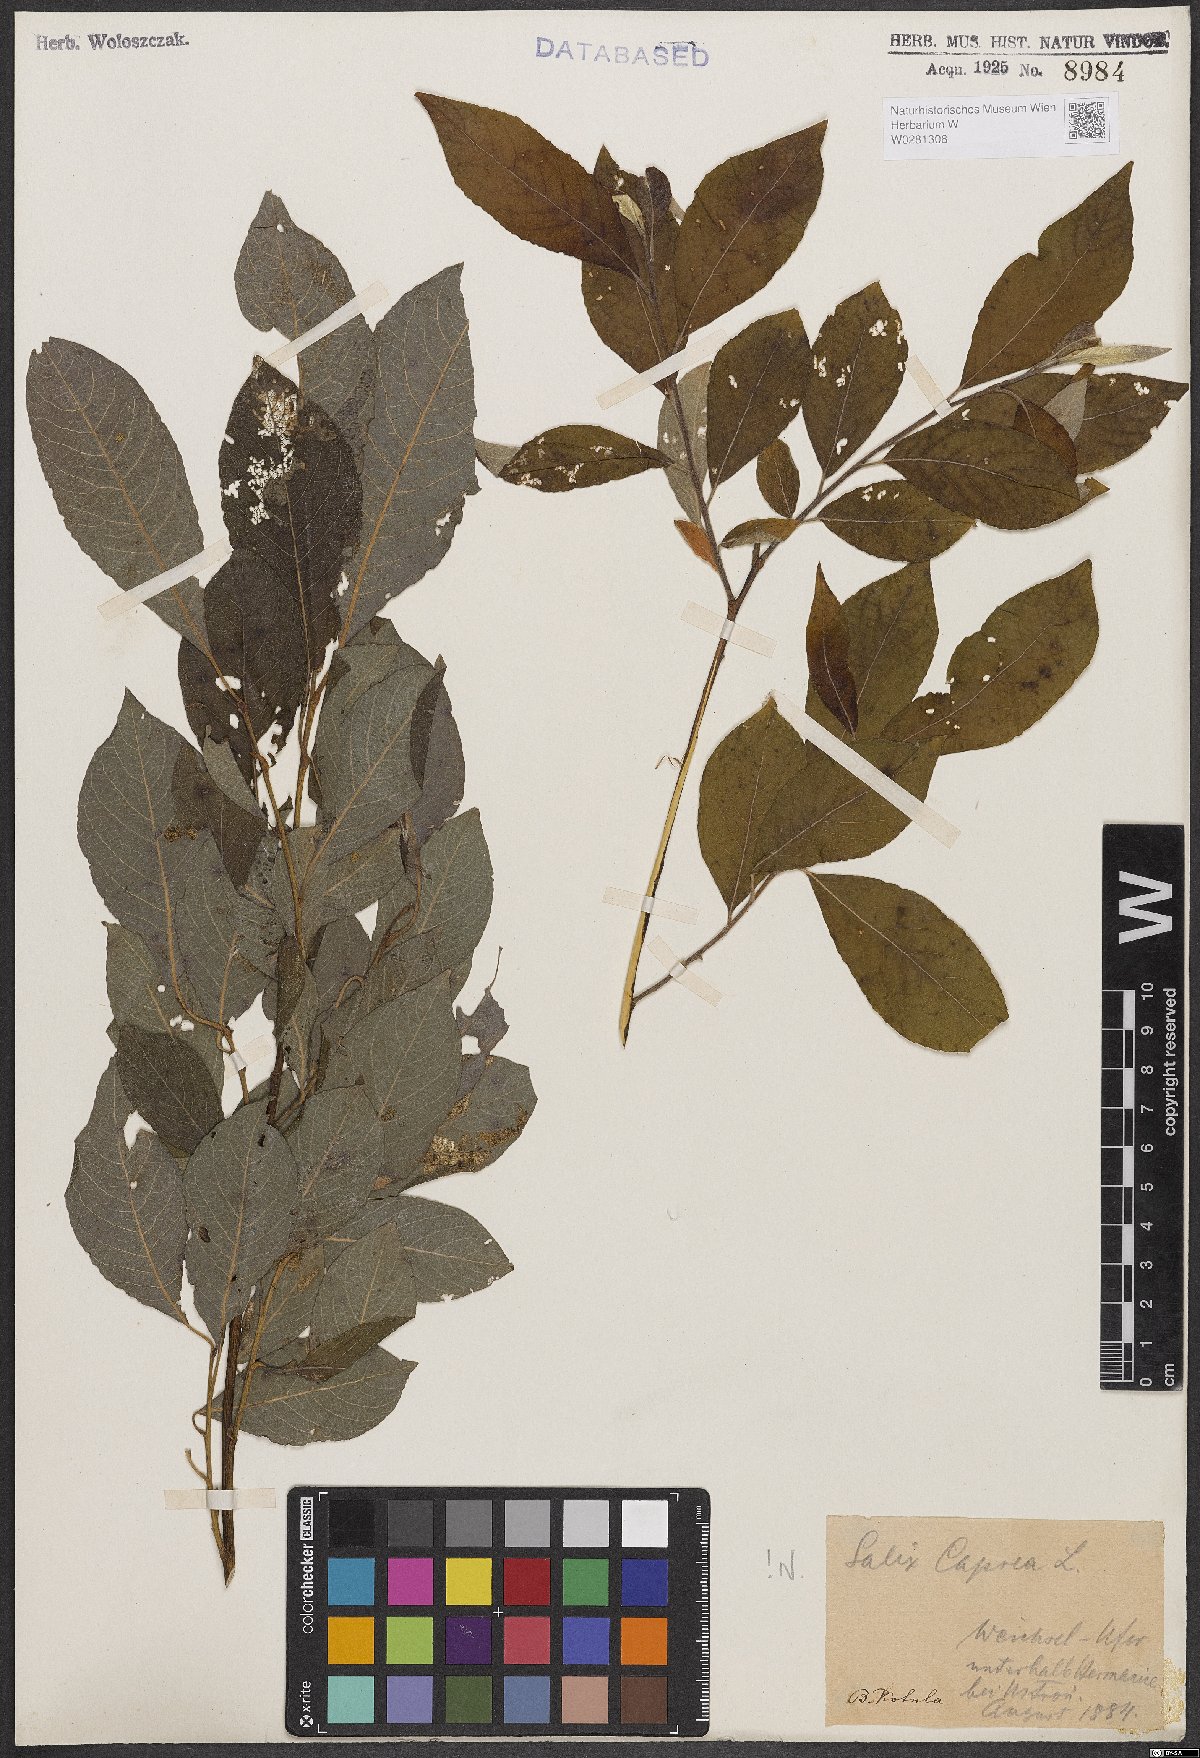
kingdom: Plantae
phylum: Tracheophyta
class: Magnoliopsida
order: Malpighiales
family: Salicaceae
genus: Salix
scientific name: Salix caprea
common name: Goat willow
